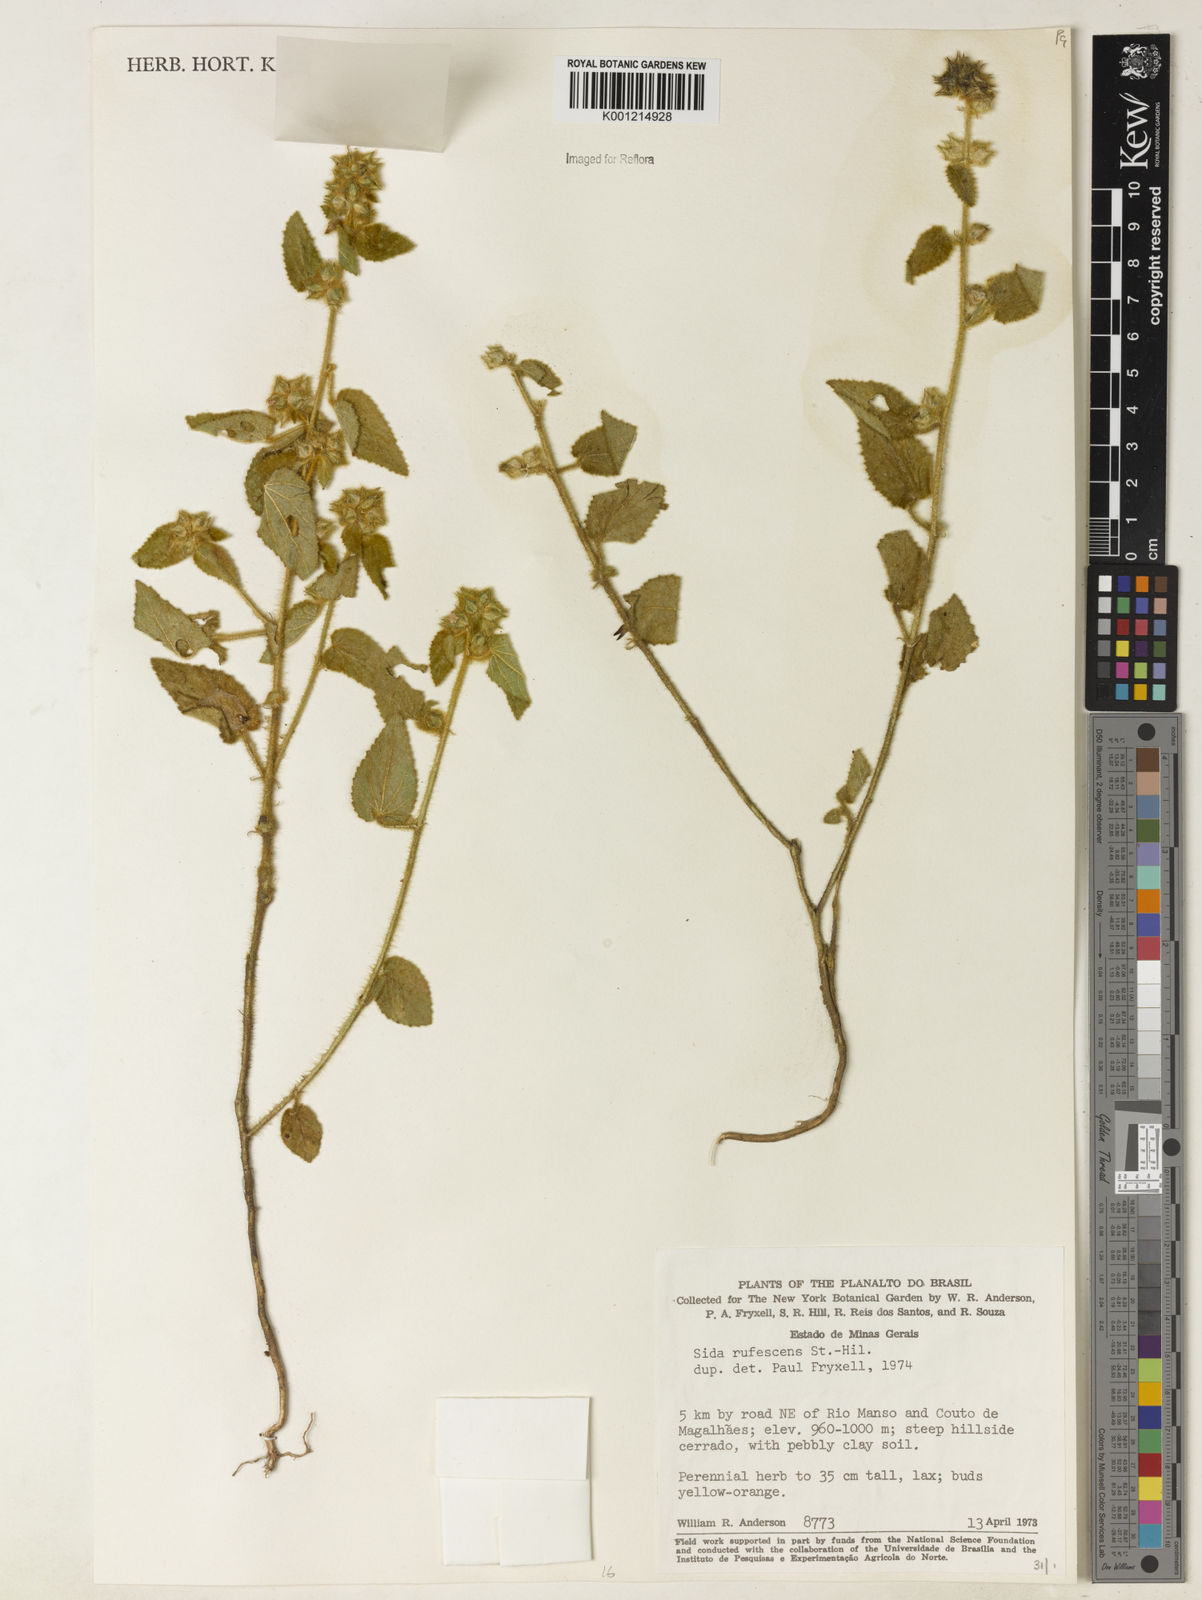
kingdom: Plantae
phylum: Tracheophyta
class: Magnoliopsida
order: Malvales
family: Malvaceae
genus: Sida
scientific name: Sida rufescens
